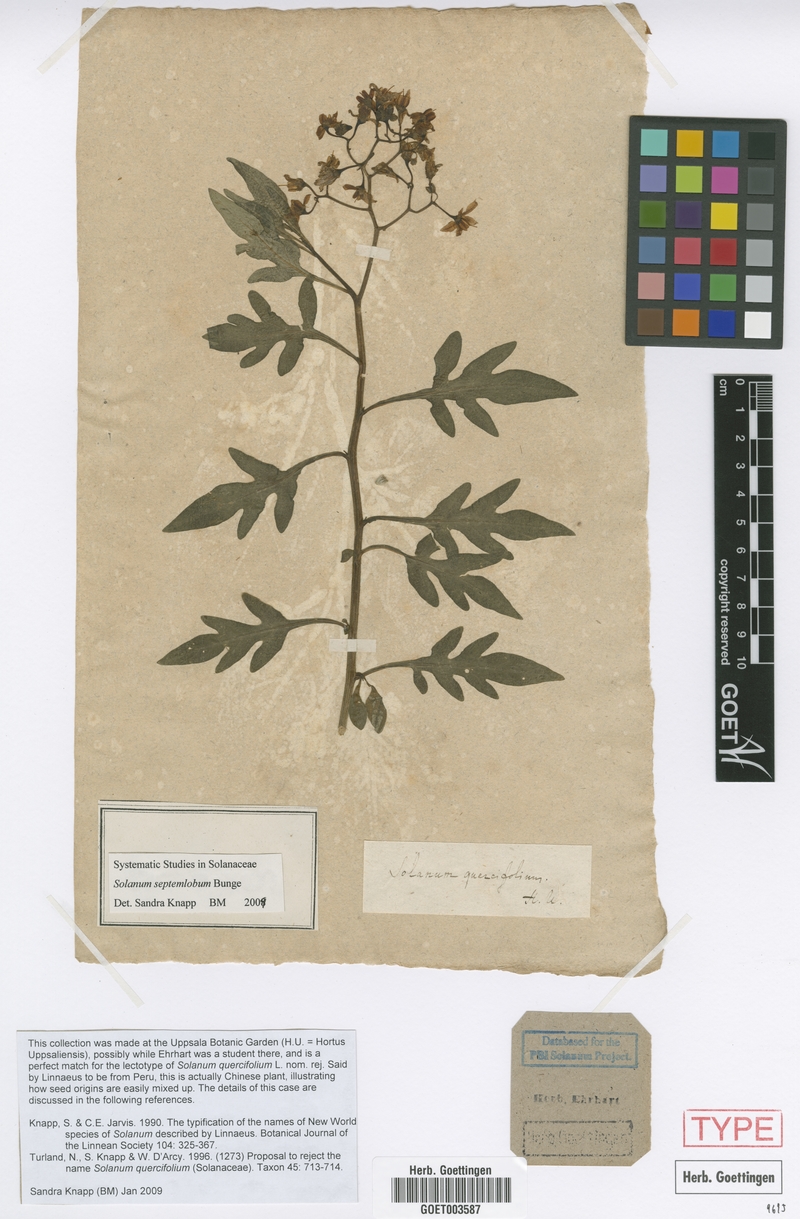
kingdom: Plantae
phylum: Tracheophyta
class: Magnoliopsida
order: Solanales
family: Solanaceae
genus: Solanum
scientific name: Solanum septemlobum
